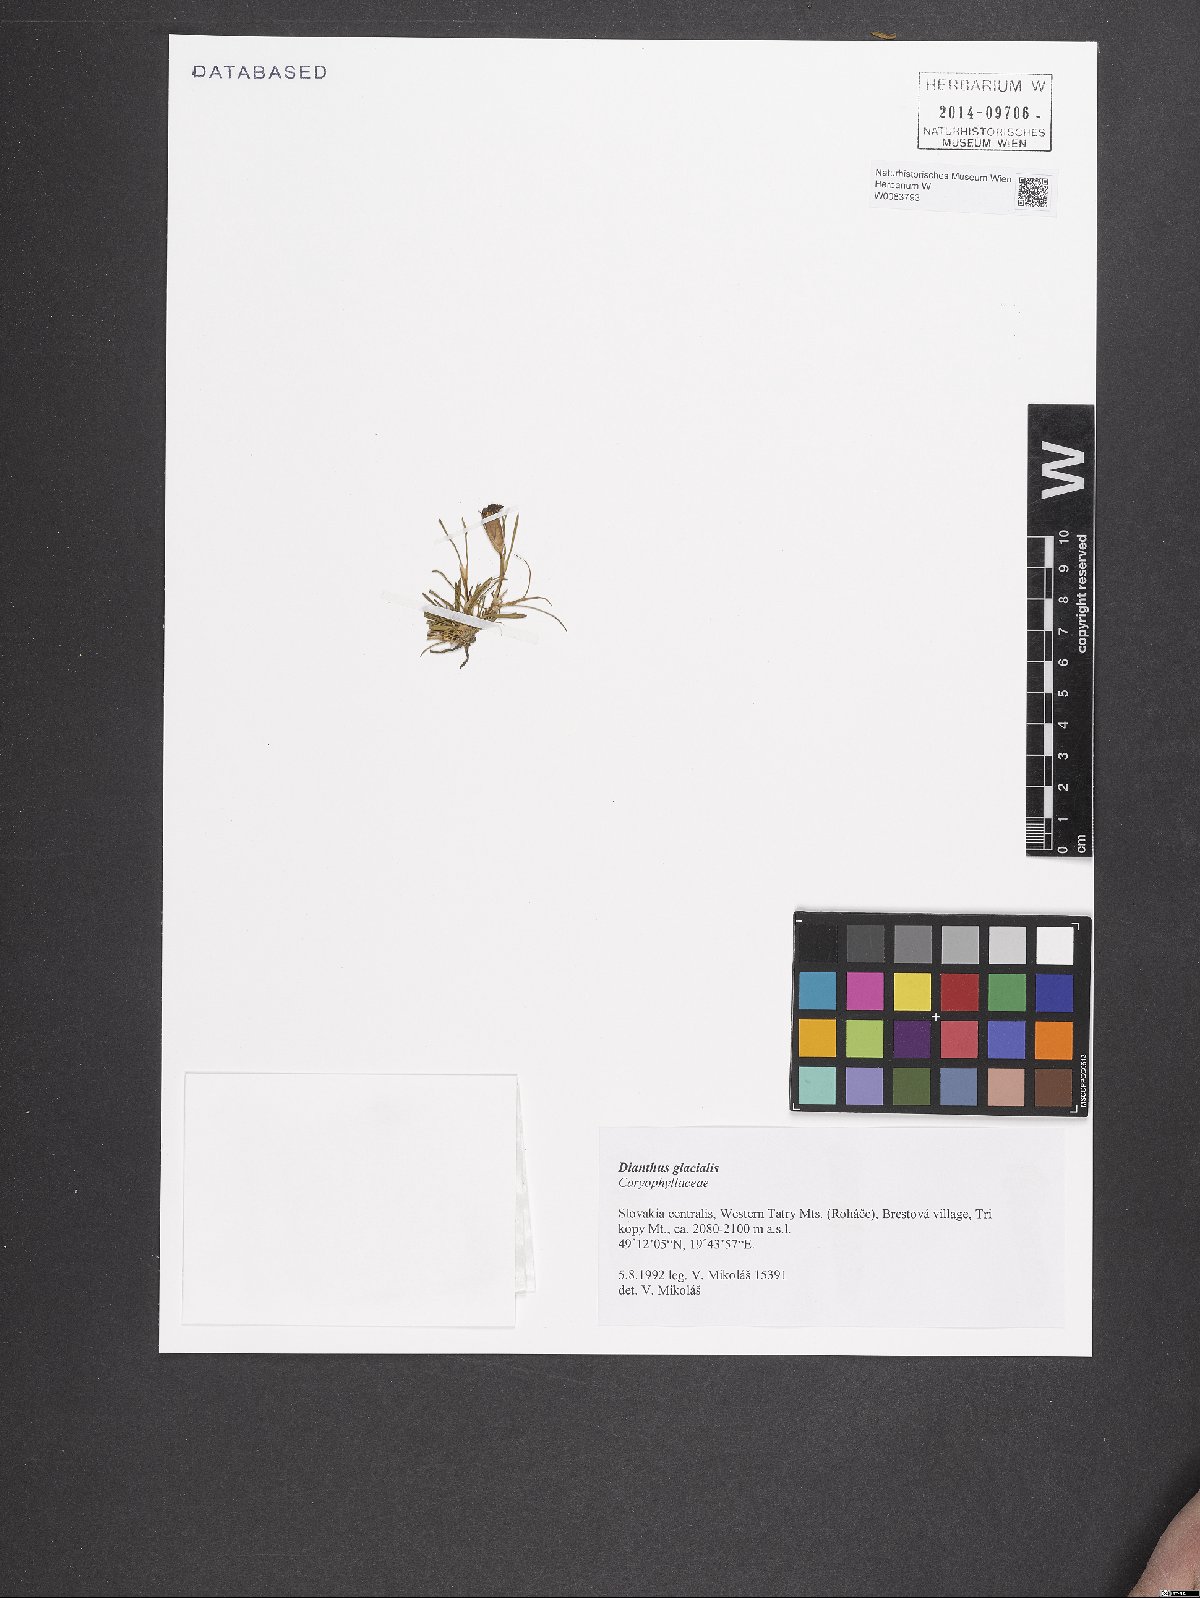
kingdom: Plantae
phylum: Tracheophyta
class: Magnoliopsida
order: Caryophyllales
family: Caryophyllaceae
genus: Dianthus
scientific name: Dianthus glacialis
